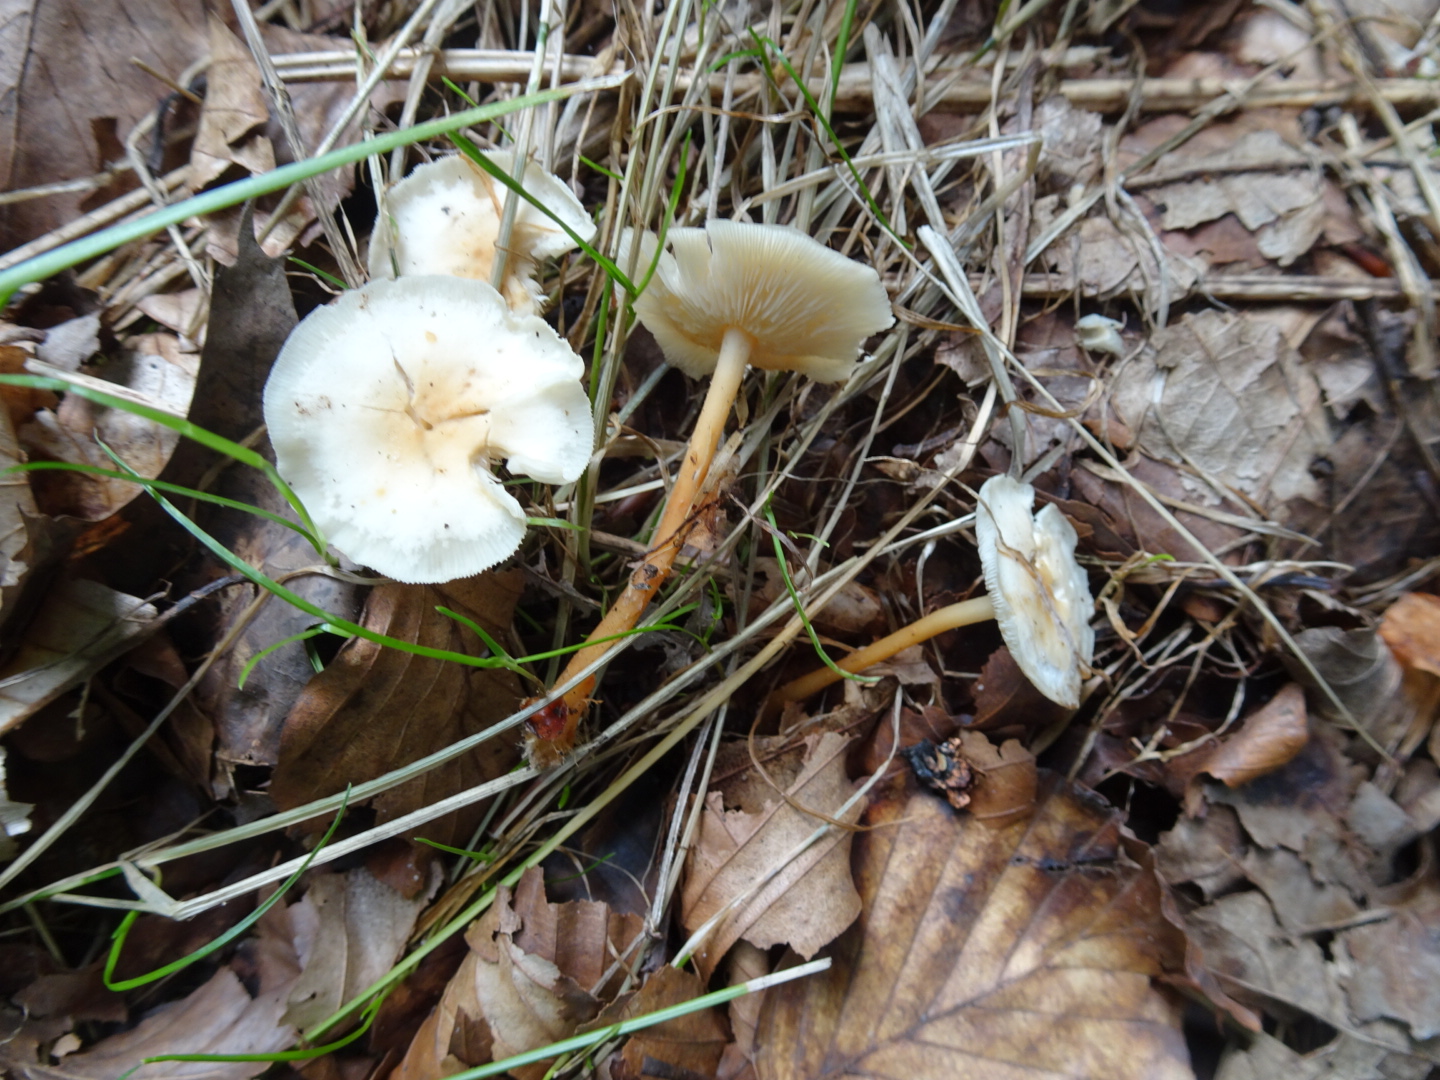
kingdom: Fungi
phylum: Basidiomycota
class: Agaricomycetes
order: Agaricales
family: Omphalotaceae
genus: Gymnopus
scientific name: Gymnopus dryophilus
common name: løv-fladhat
